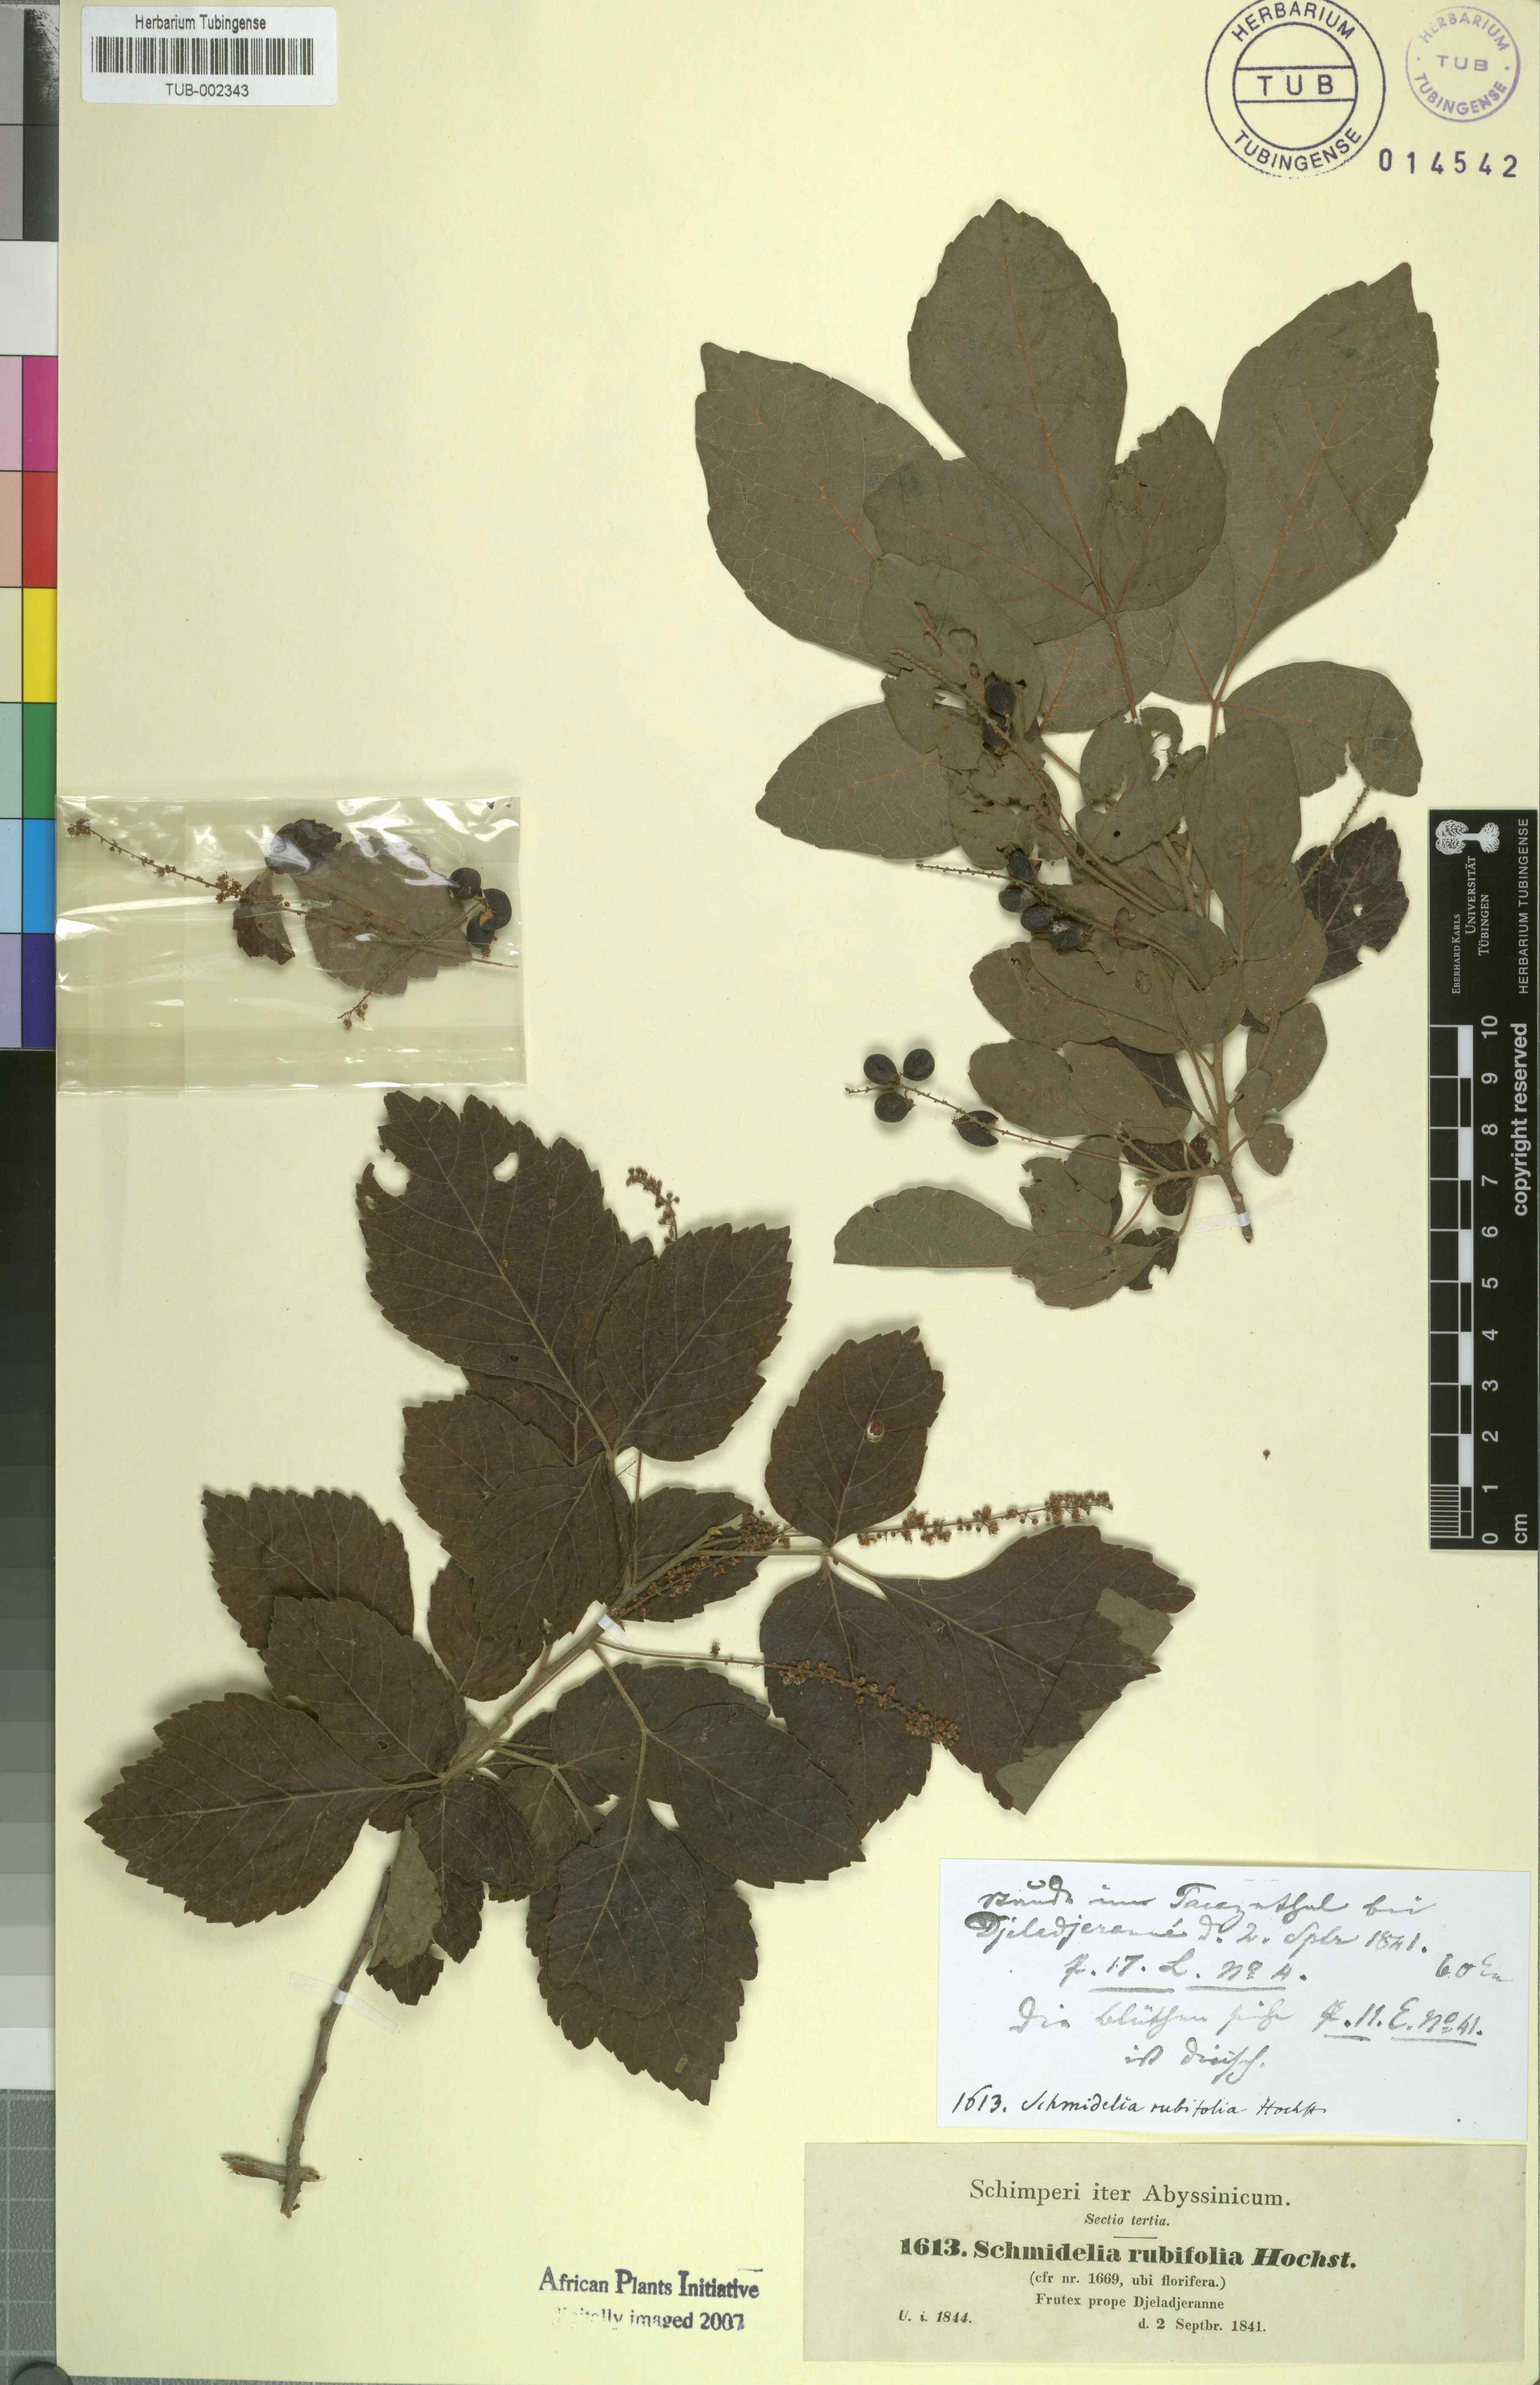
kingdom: Plantae
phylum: Tracheophyta
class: Magnoliopsida
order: Sapindales
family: Sapindaceae
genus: Allophylus
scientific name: Allophylus rubifolius
